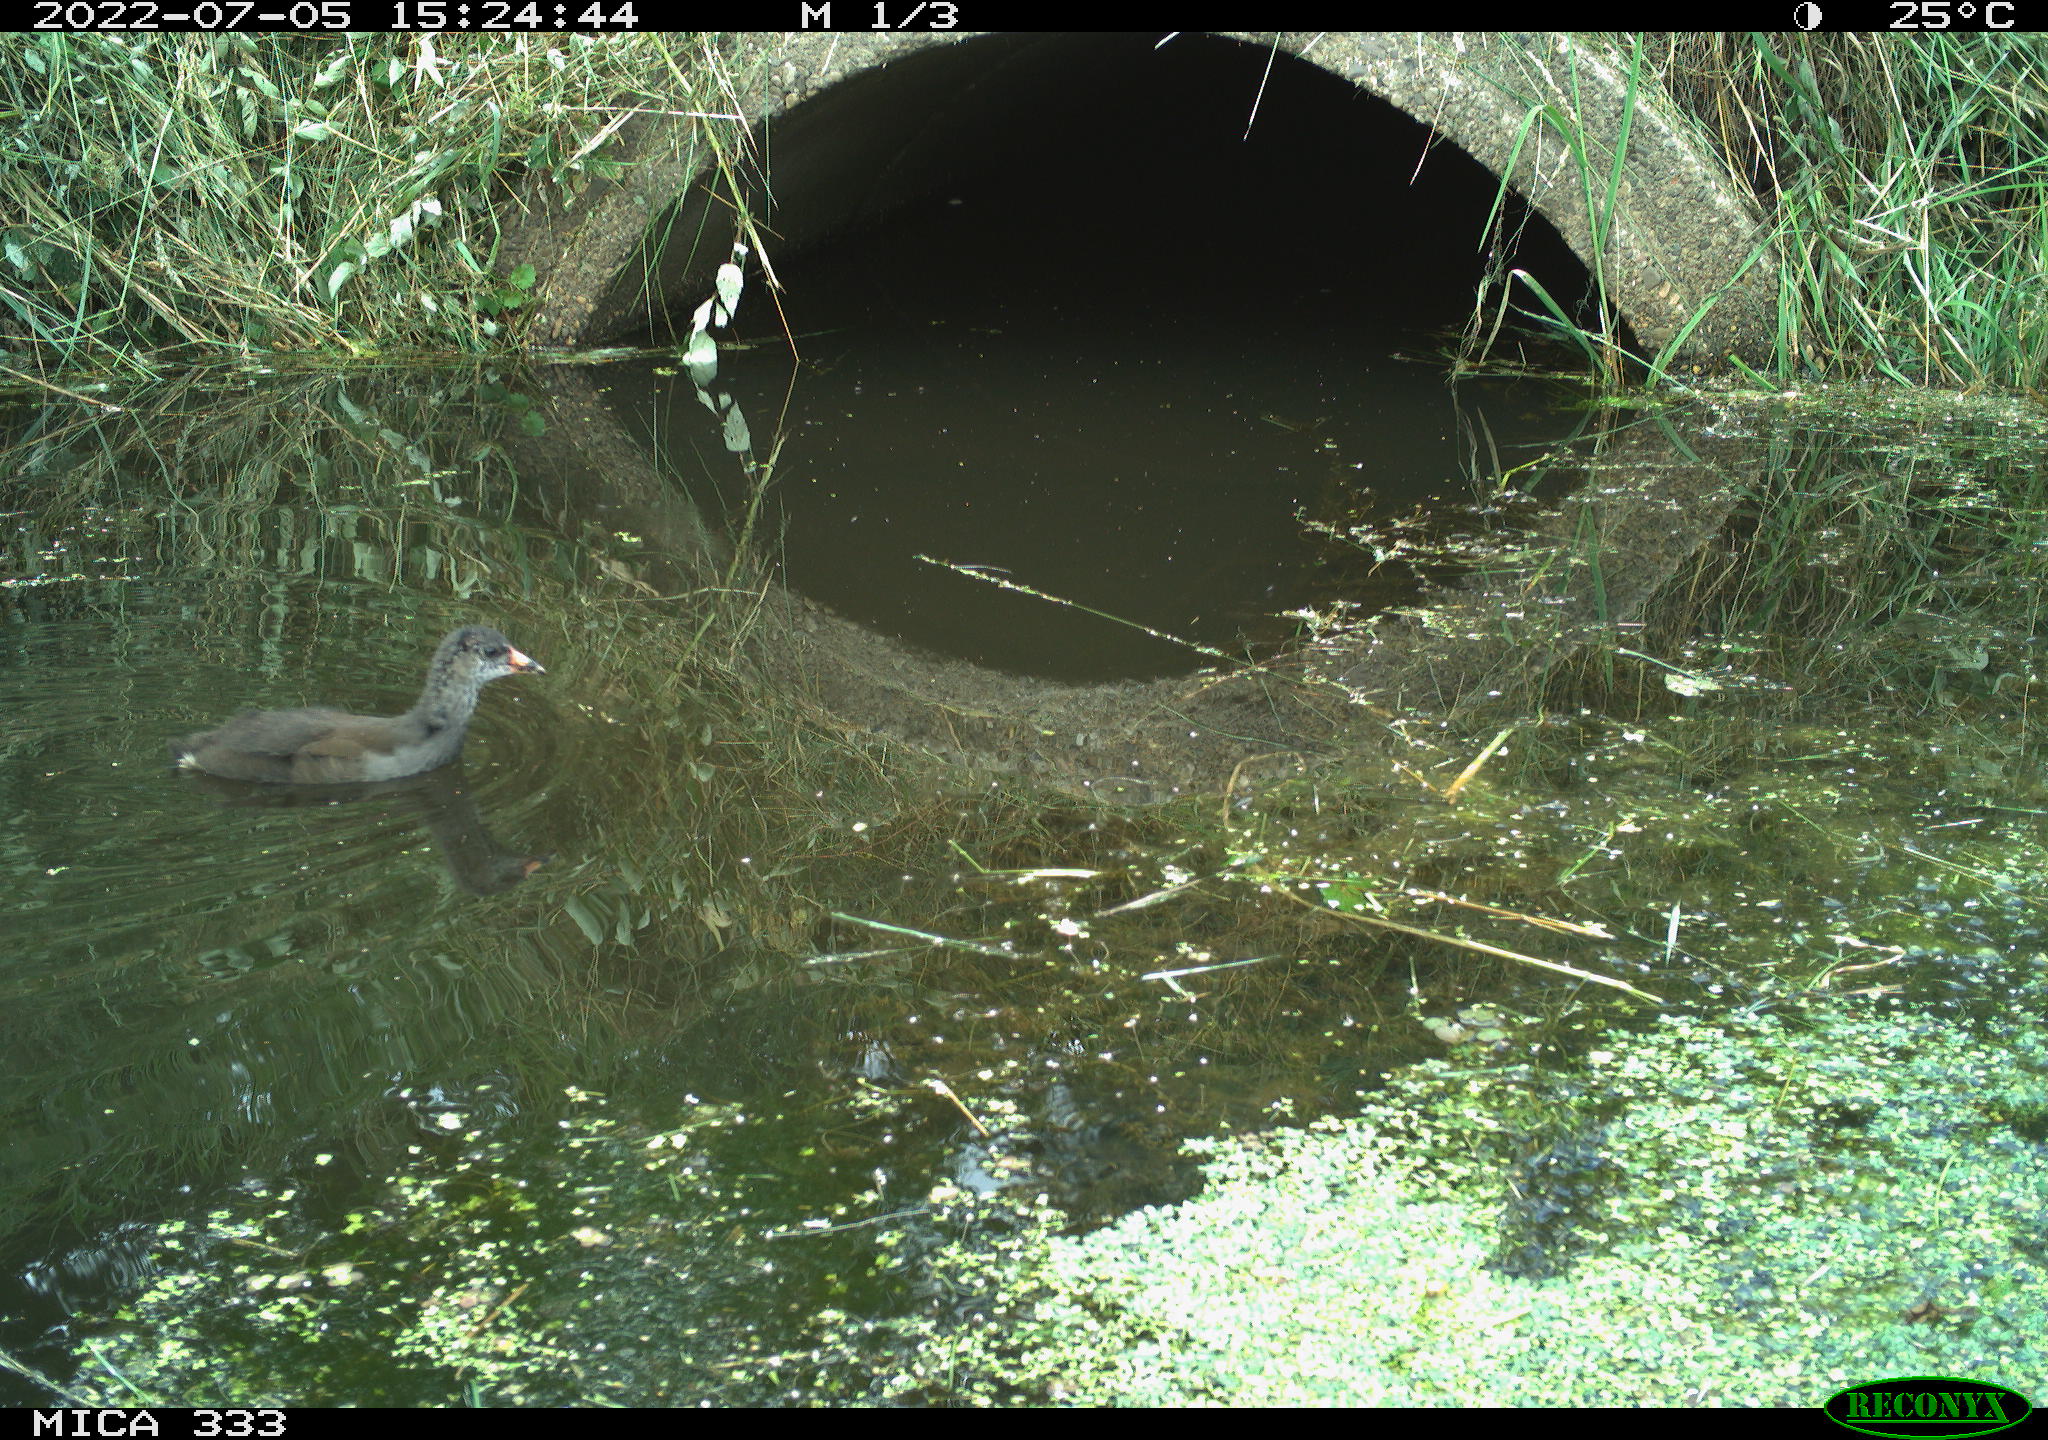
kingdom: Animalia
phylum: Chordata
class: Aves
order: Gruiformes
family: Rallidae
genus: Gallinula
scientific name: Gallinula chloropus
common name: Common moorhen
